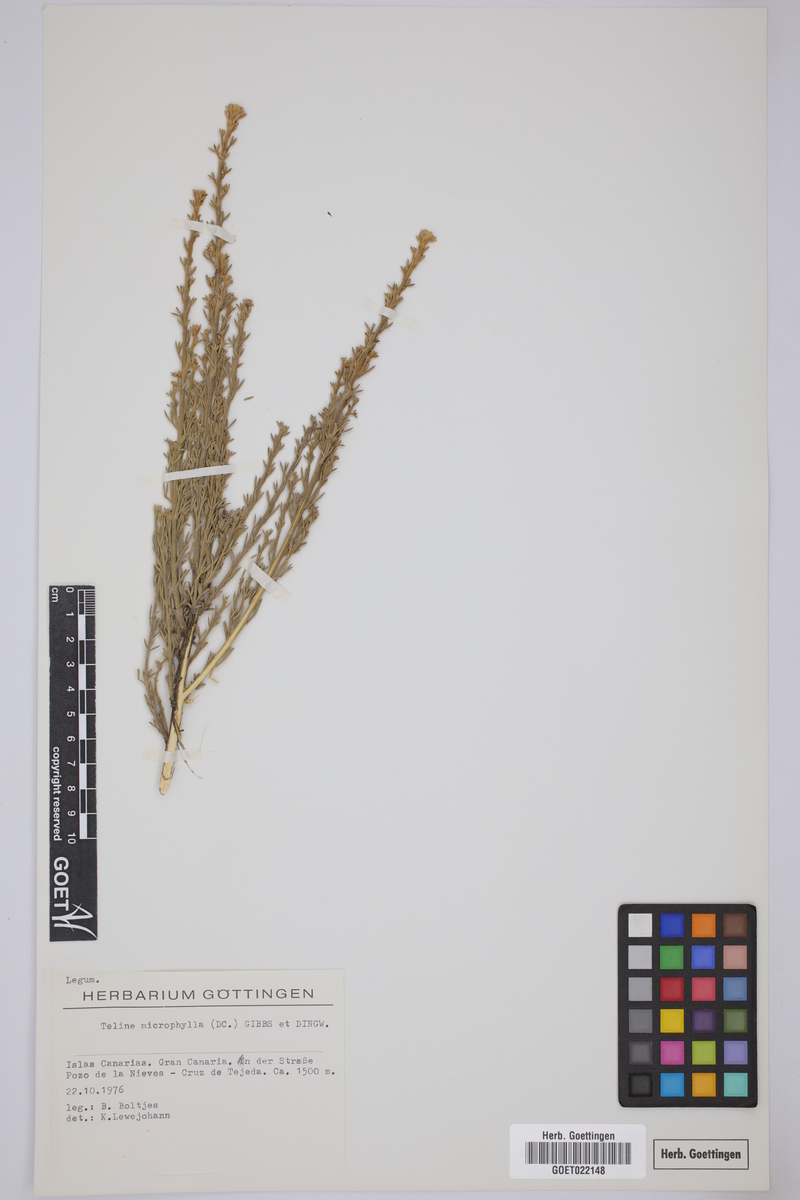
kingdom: Plantae
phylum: Tracheophyta
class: Magnoliopsida
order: Fabales
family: Fabaceae
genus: Genista
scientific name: Genista microphylla
